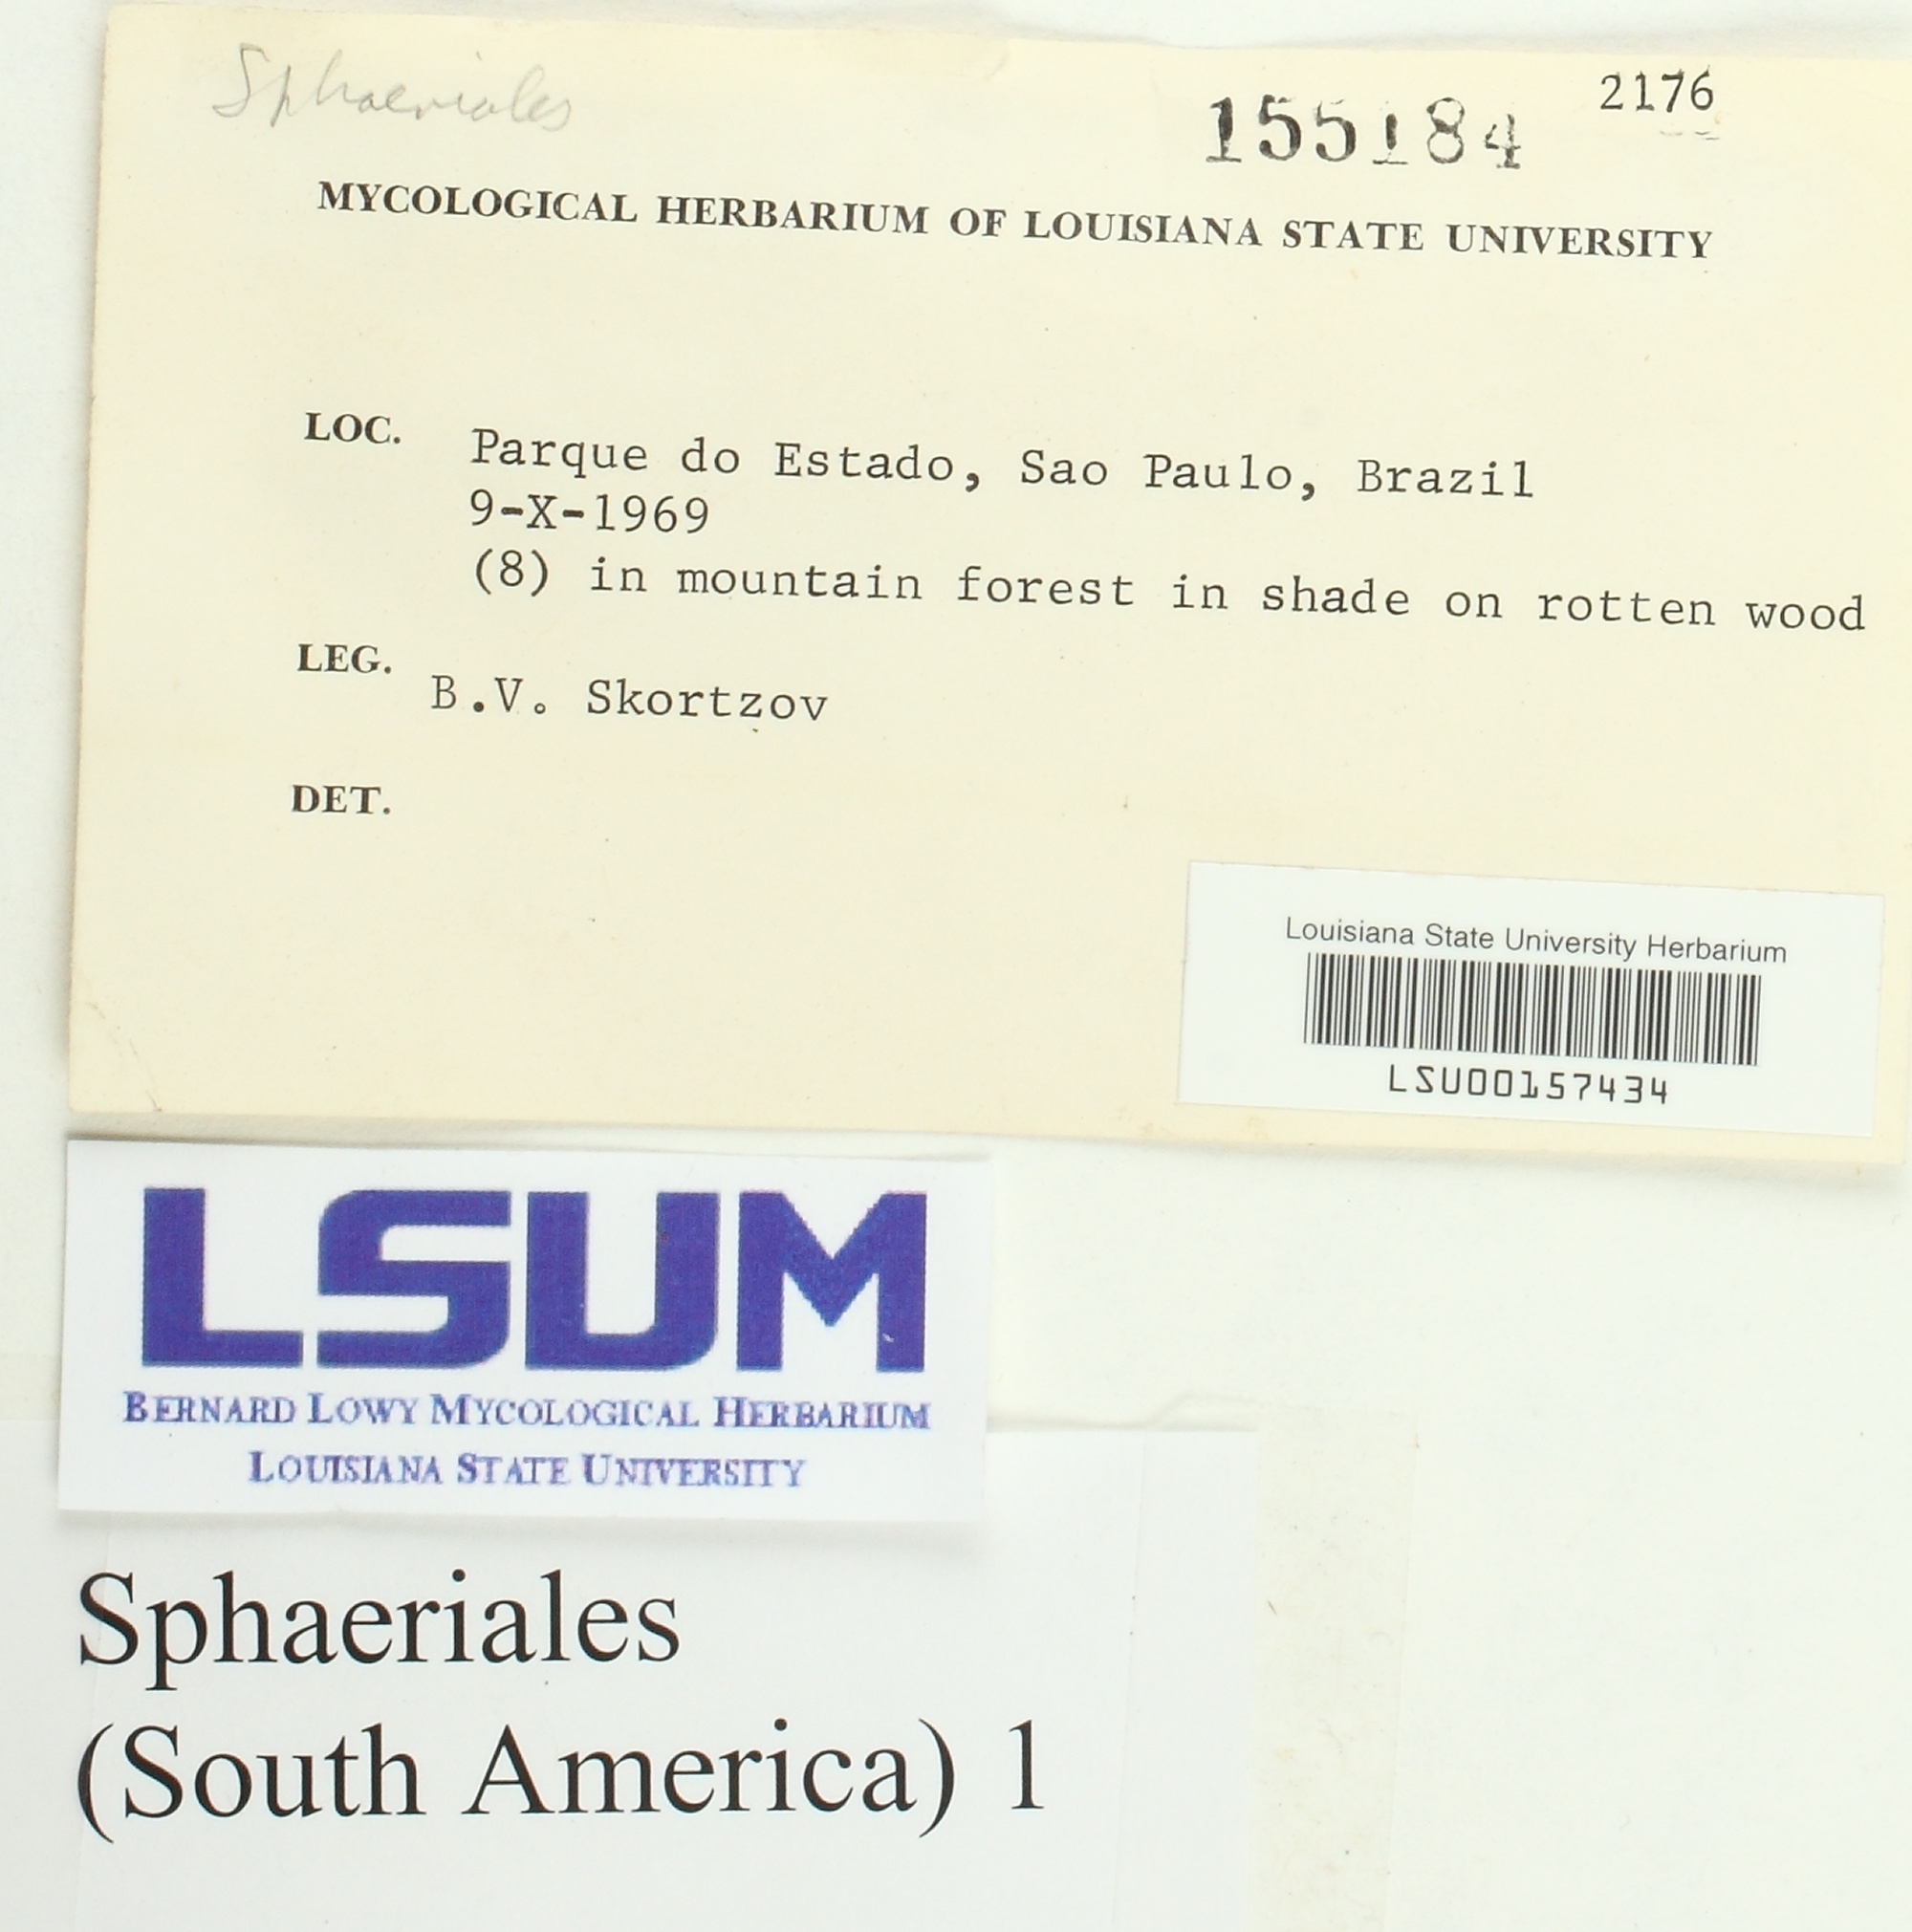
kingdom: Fungi
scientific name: Fungi
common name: Fungi
